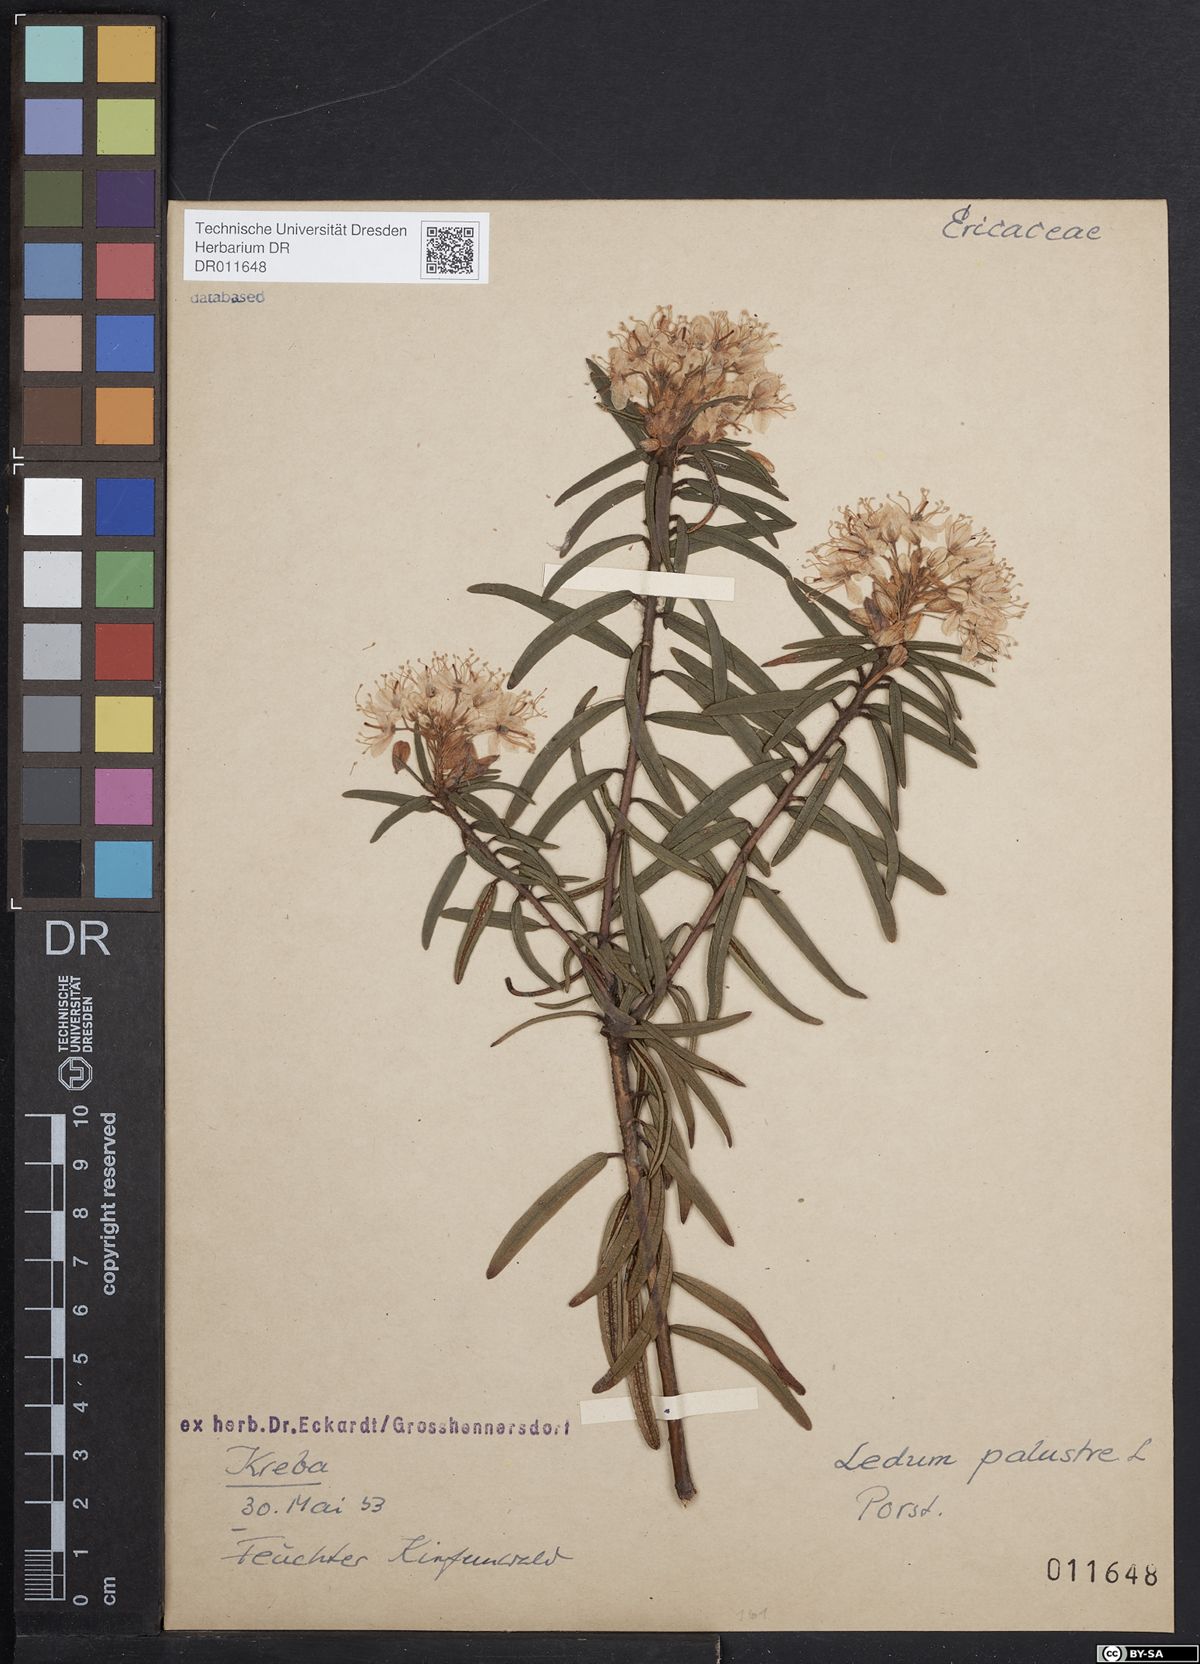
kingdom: Plantae
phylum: Tracheophyta
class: Magnoliopsida
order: Ericales
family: Ericaceae
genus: Rhododendron
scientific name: Rhododendron tomentosum
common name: Marsh labrador tea
